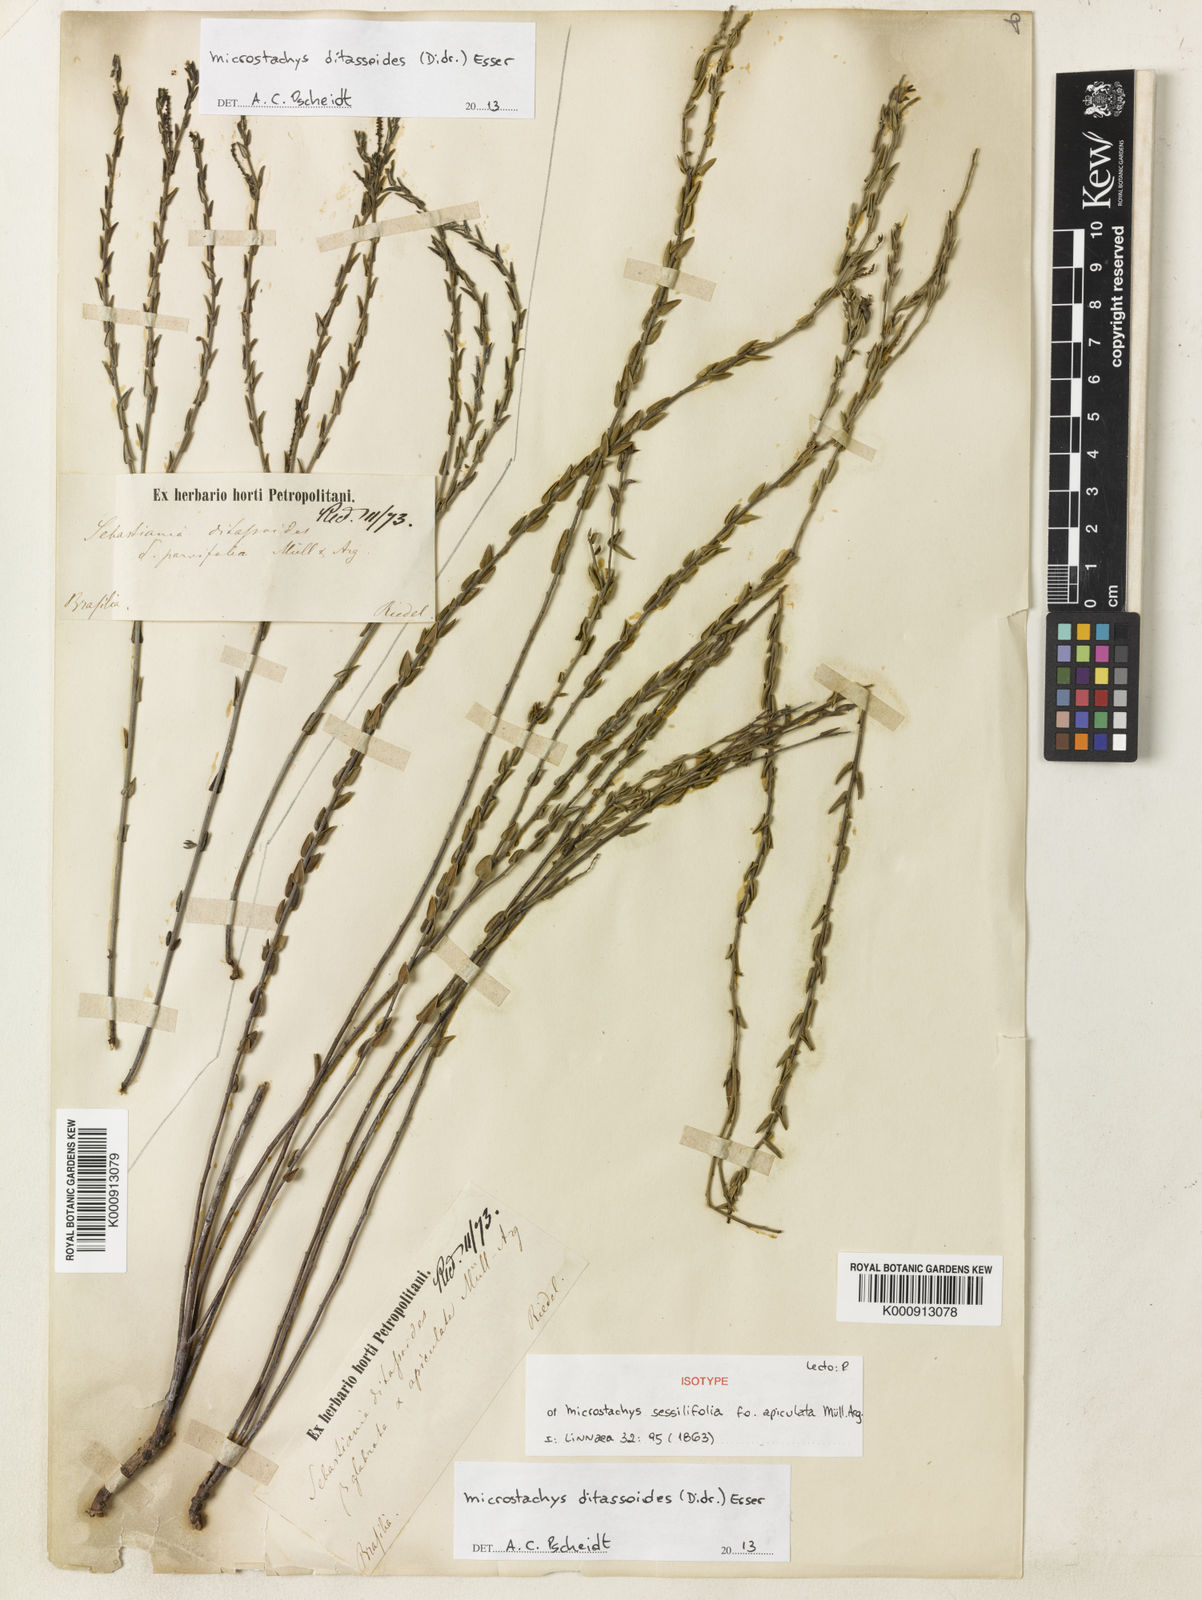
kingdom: Plantae
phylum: Tracheophyta
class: Magnoliopsida
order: Malpighiales
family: Euphorbiaceae
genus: Microstachys
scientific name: Microstachys ditassoides
